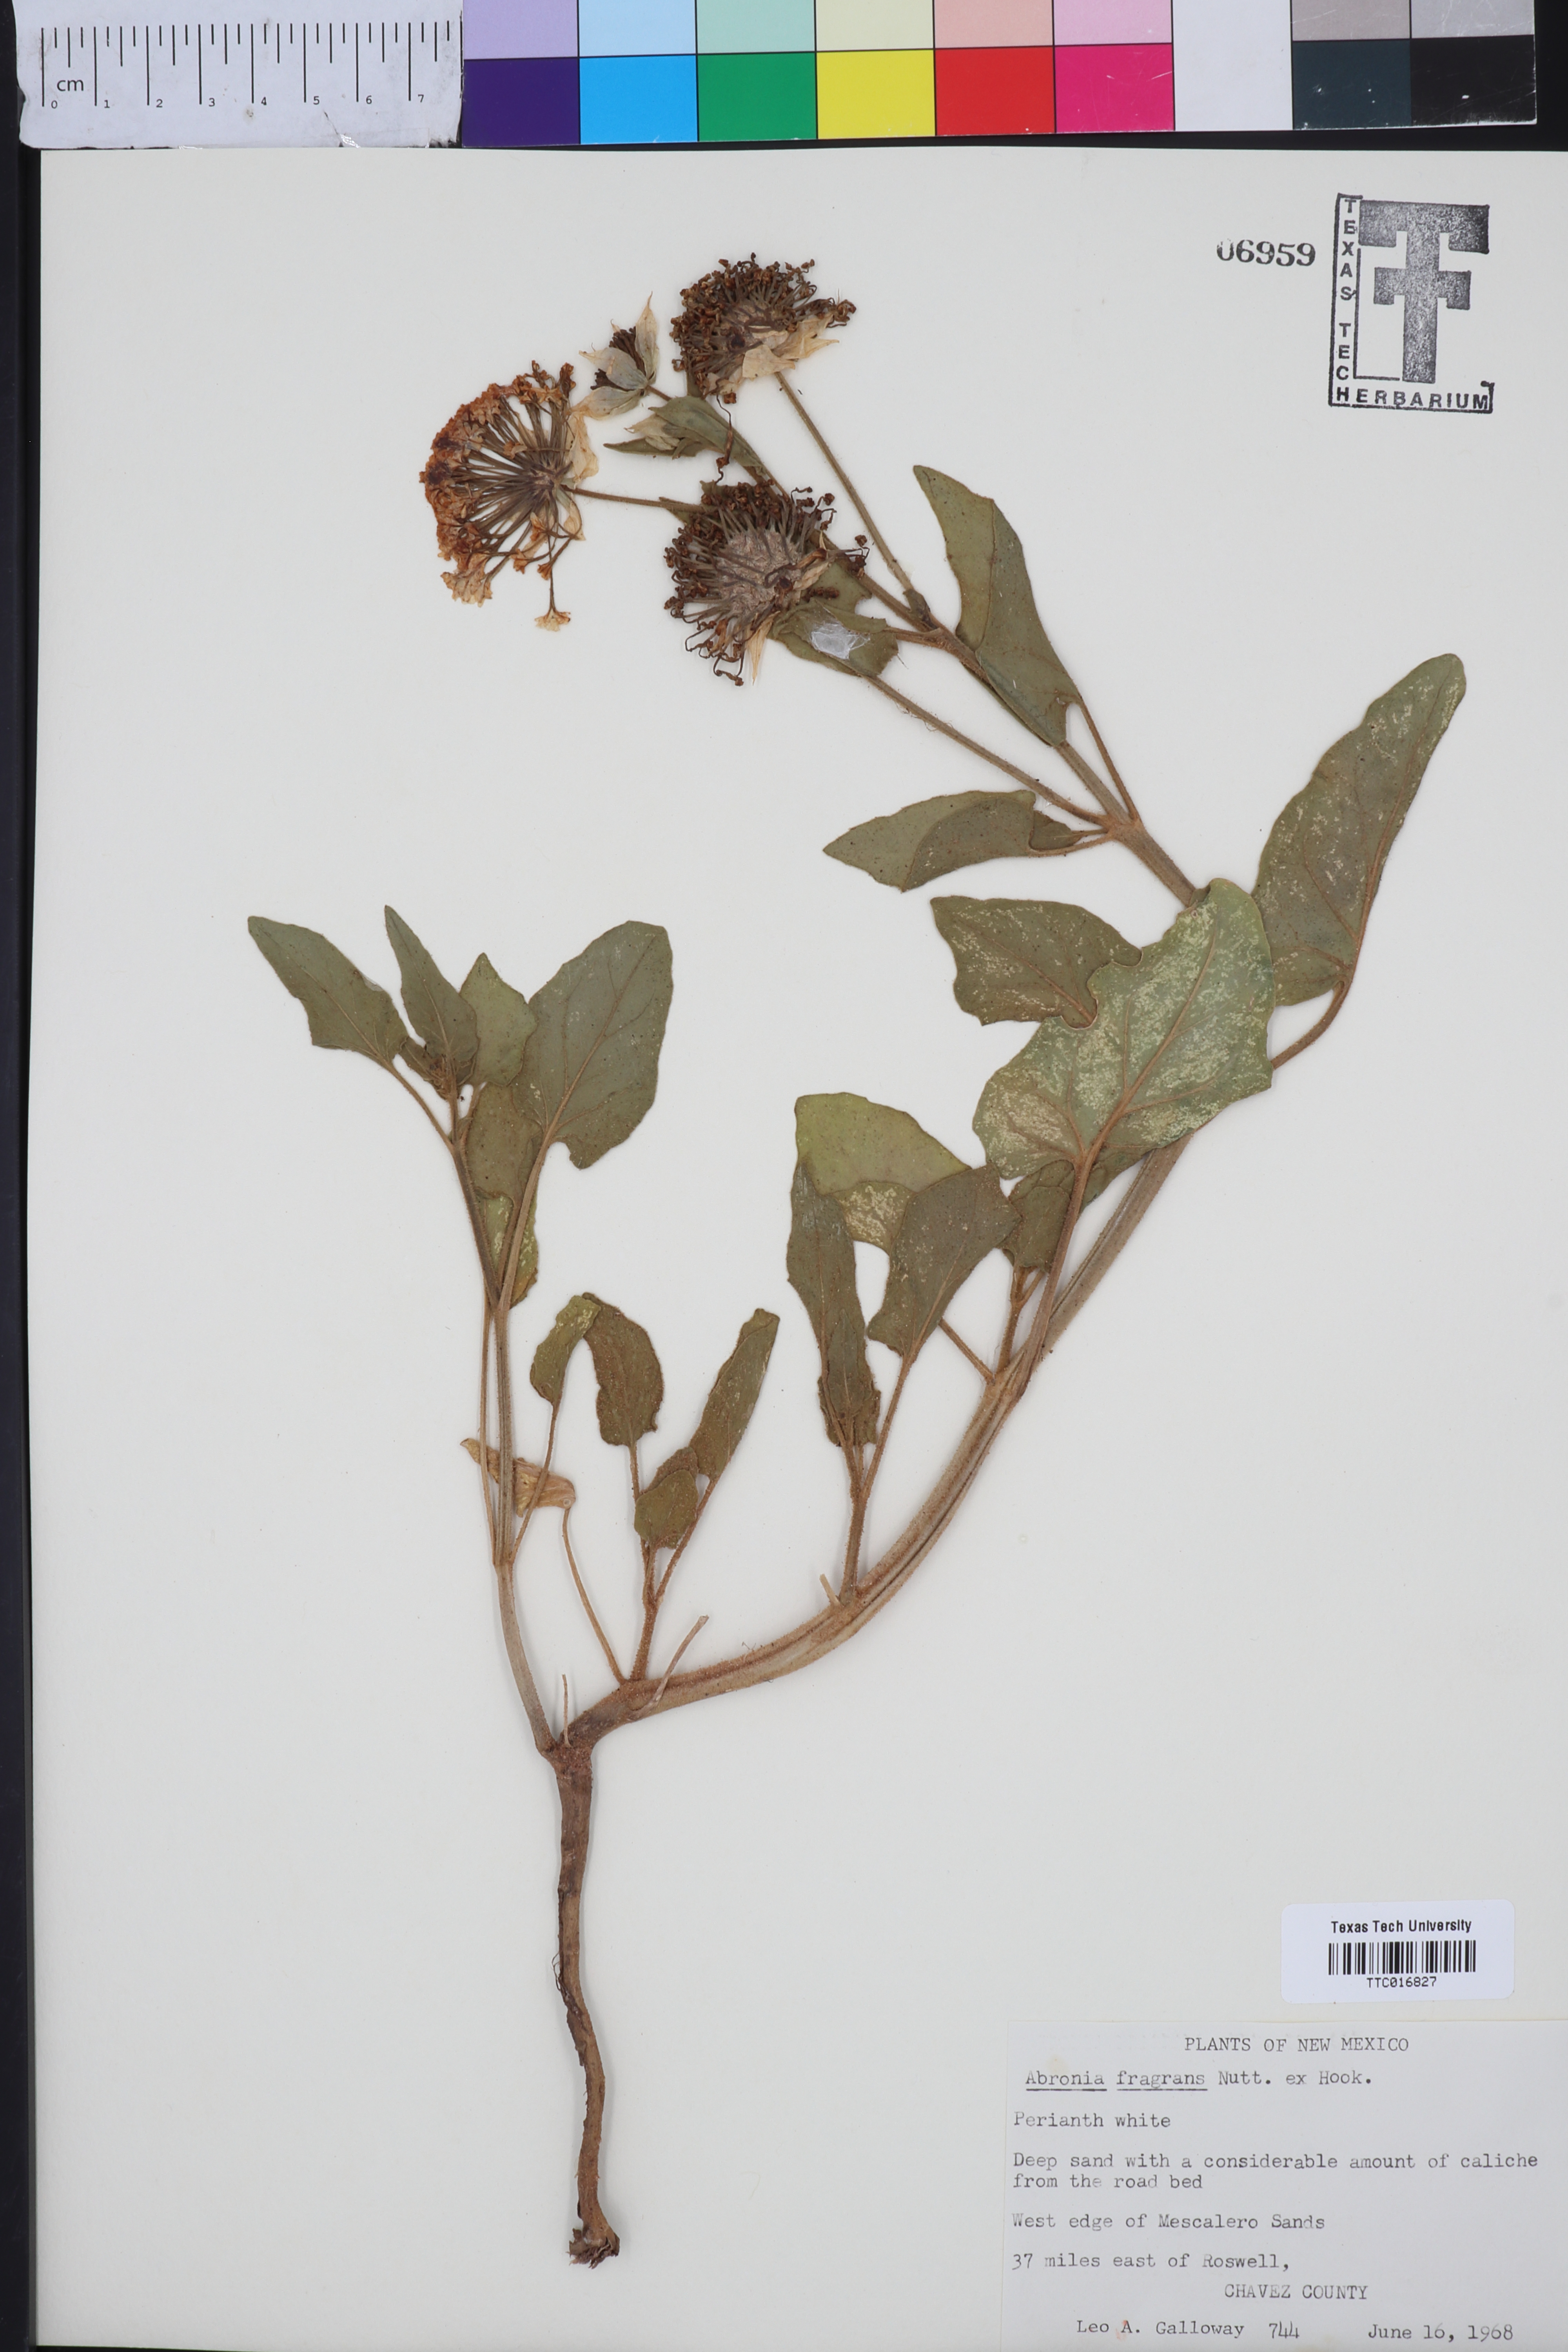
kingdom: Plantae
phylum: Tracheophyta
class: Magnoliopsida
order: Caryophyllales
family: Nyctaginaceae
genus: Abronia
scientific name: Abronia fragrans
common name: Fragrant sand-verbena
